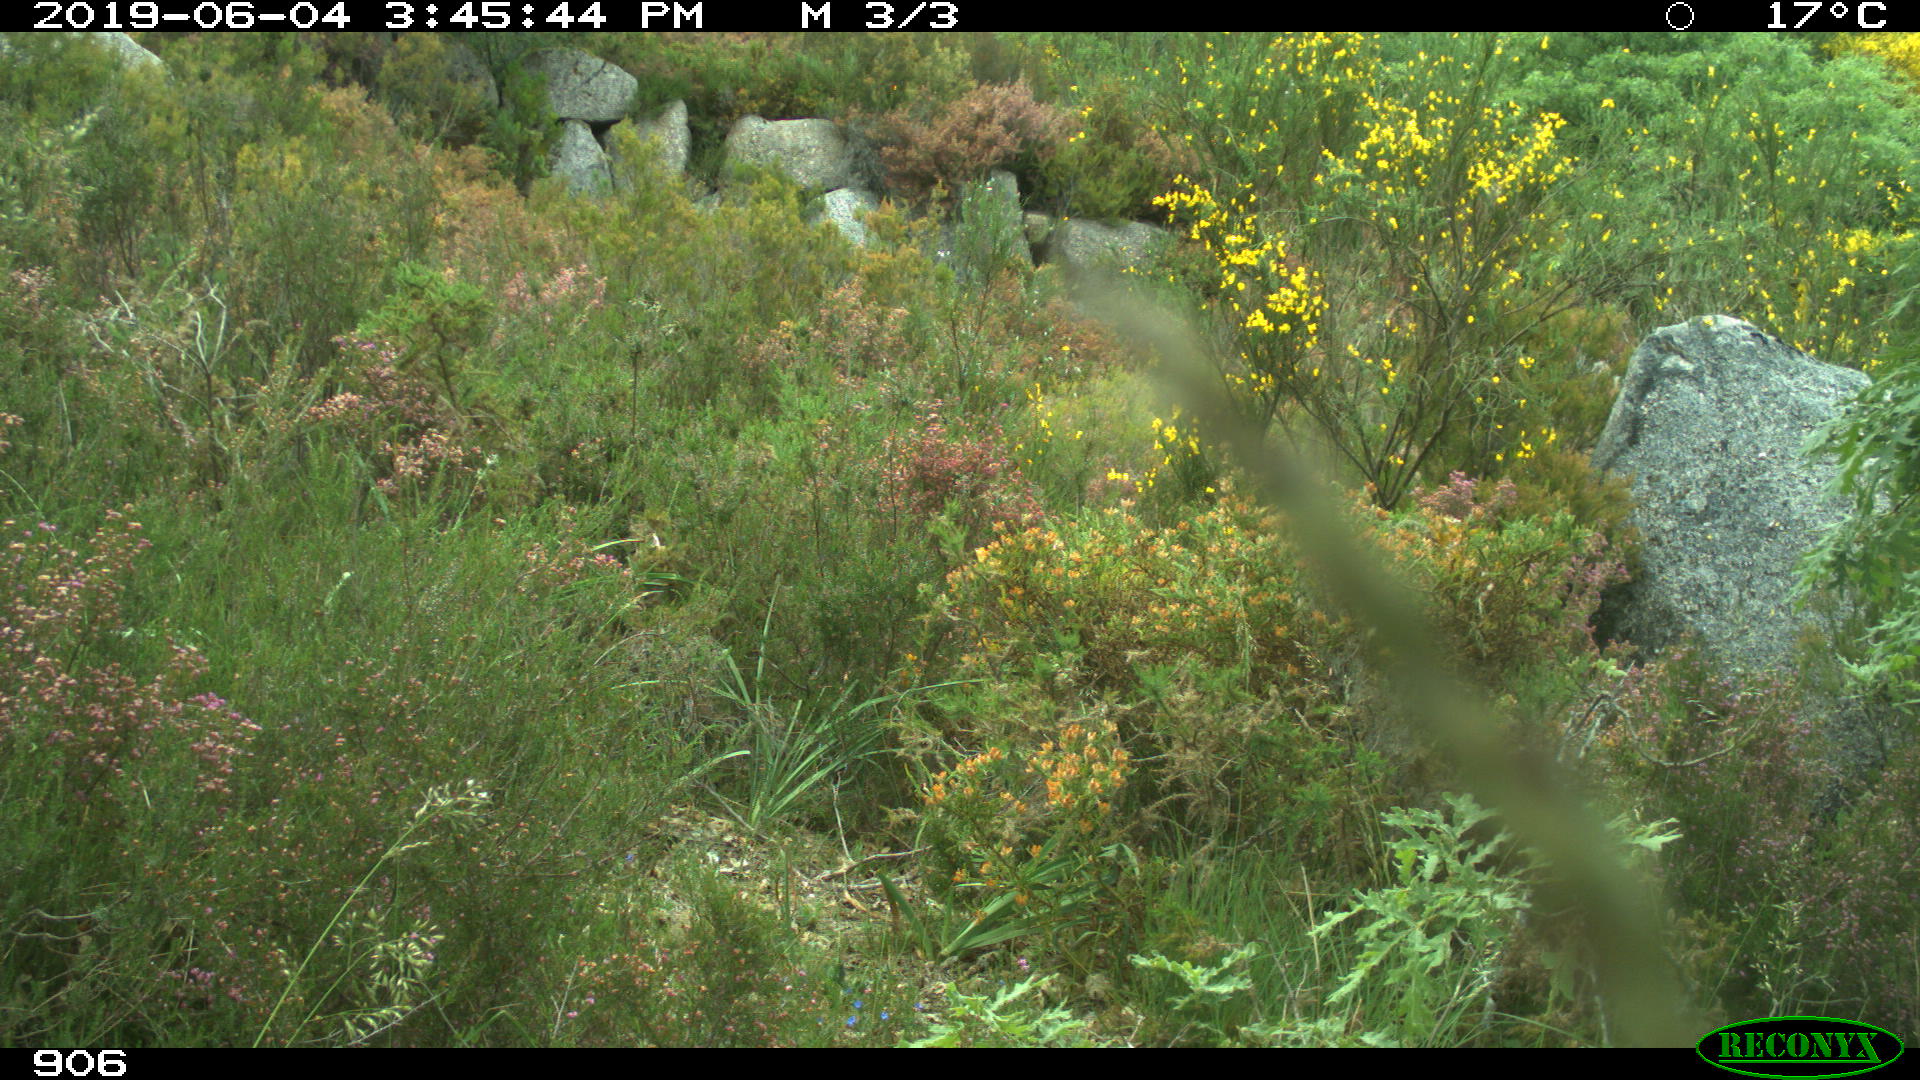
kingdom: Animalia
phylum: Chordata
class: Mammalia
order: Artiodactyla
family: Cervidae
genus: Capreolus
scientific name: Capreolus capreolus
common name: Western roe deer
